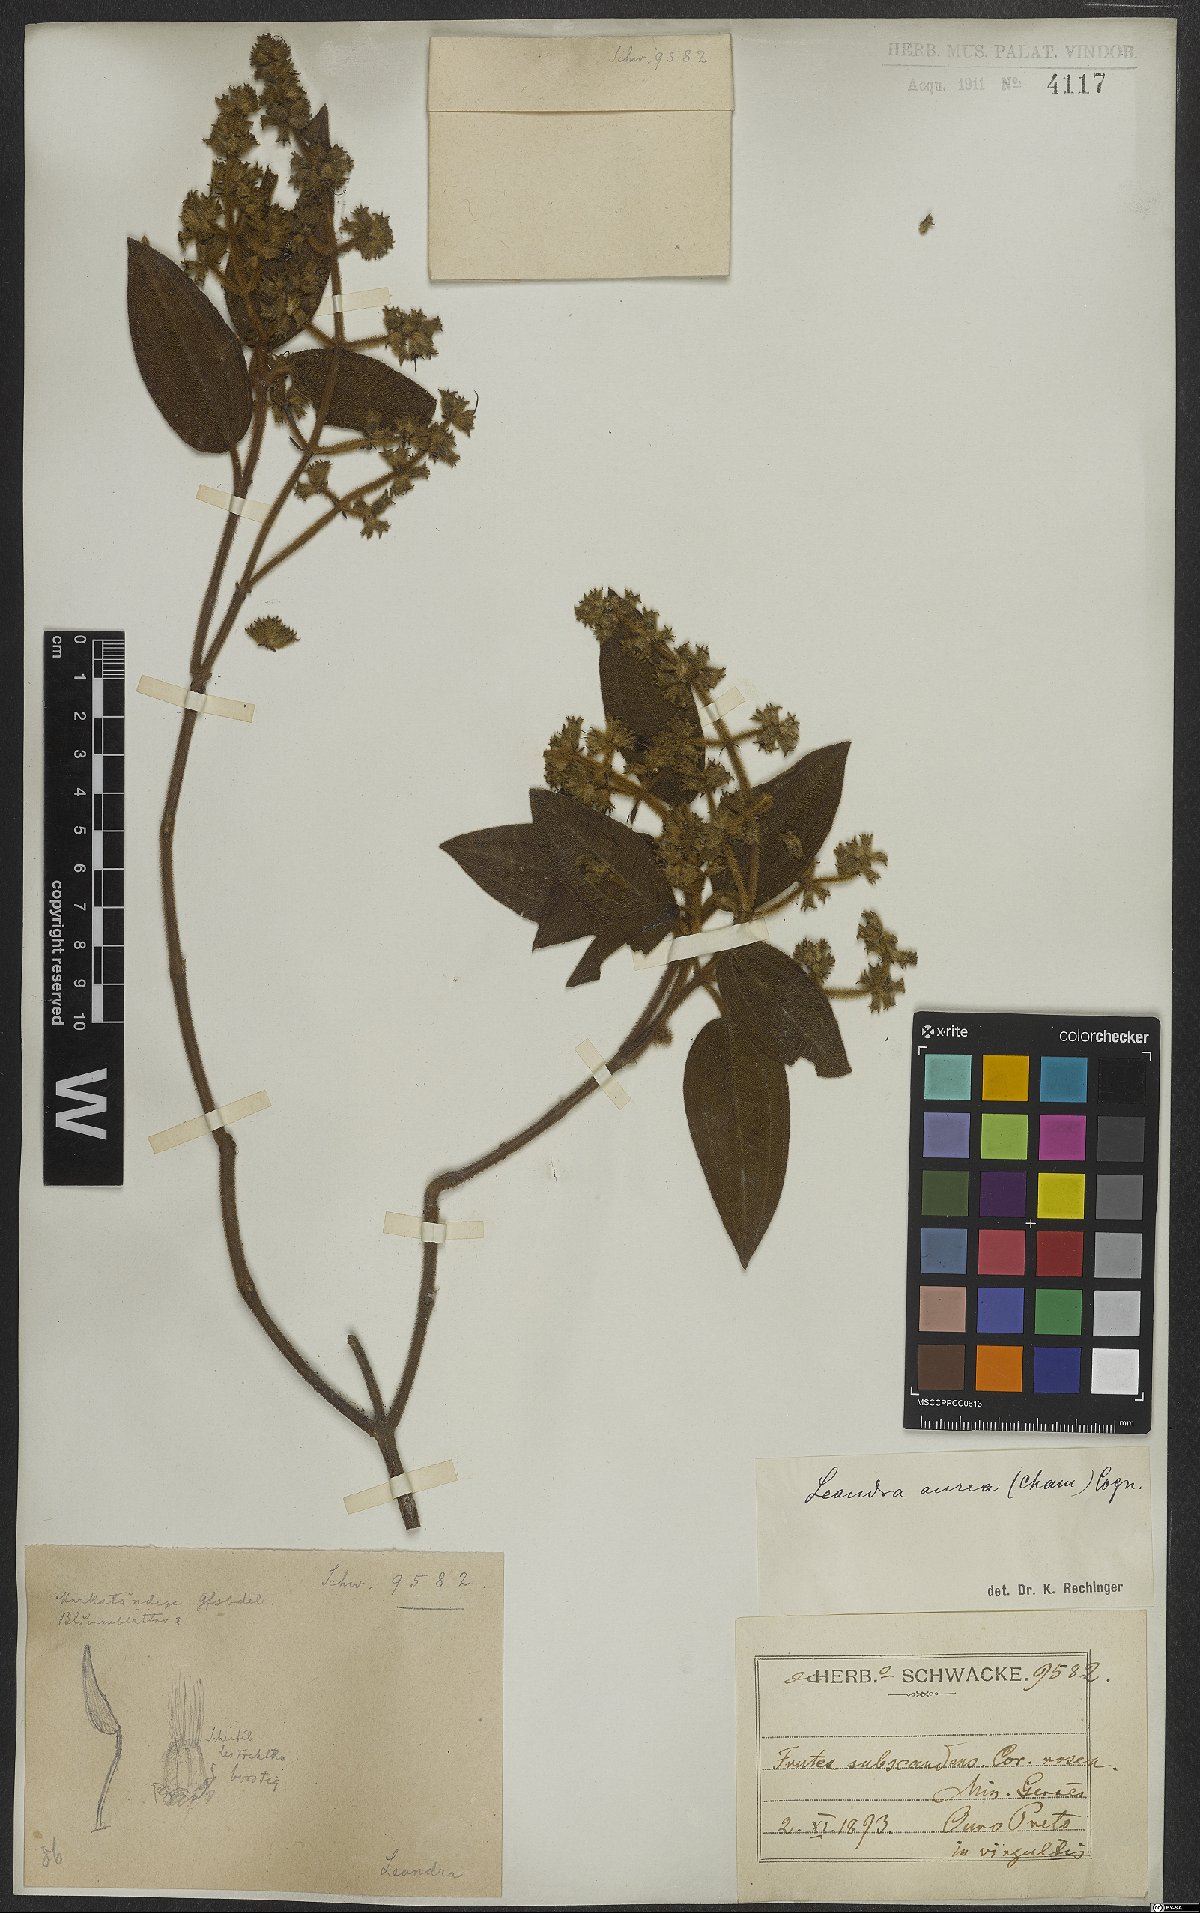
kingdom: Plantae
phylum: Tracheophyta
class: Magnoliopsida
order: Myrtales
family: Melastomataceae
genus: Miconia
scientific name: Miconia auricoma
